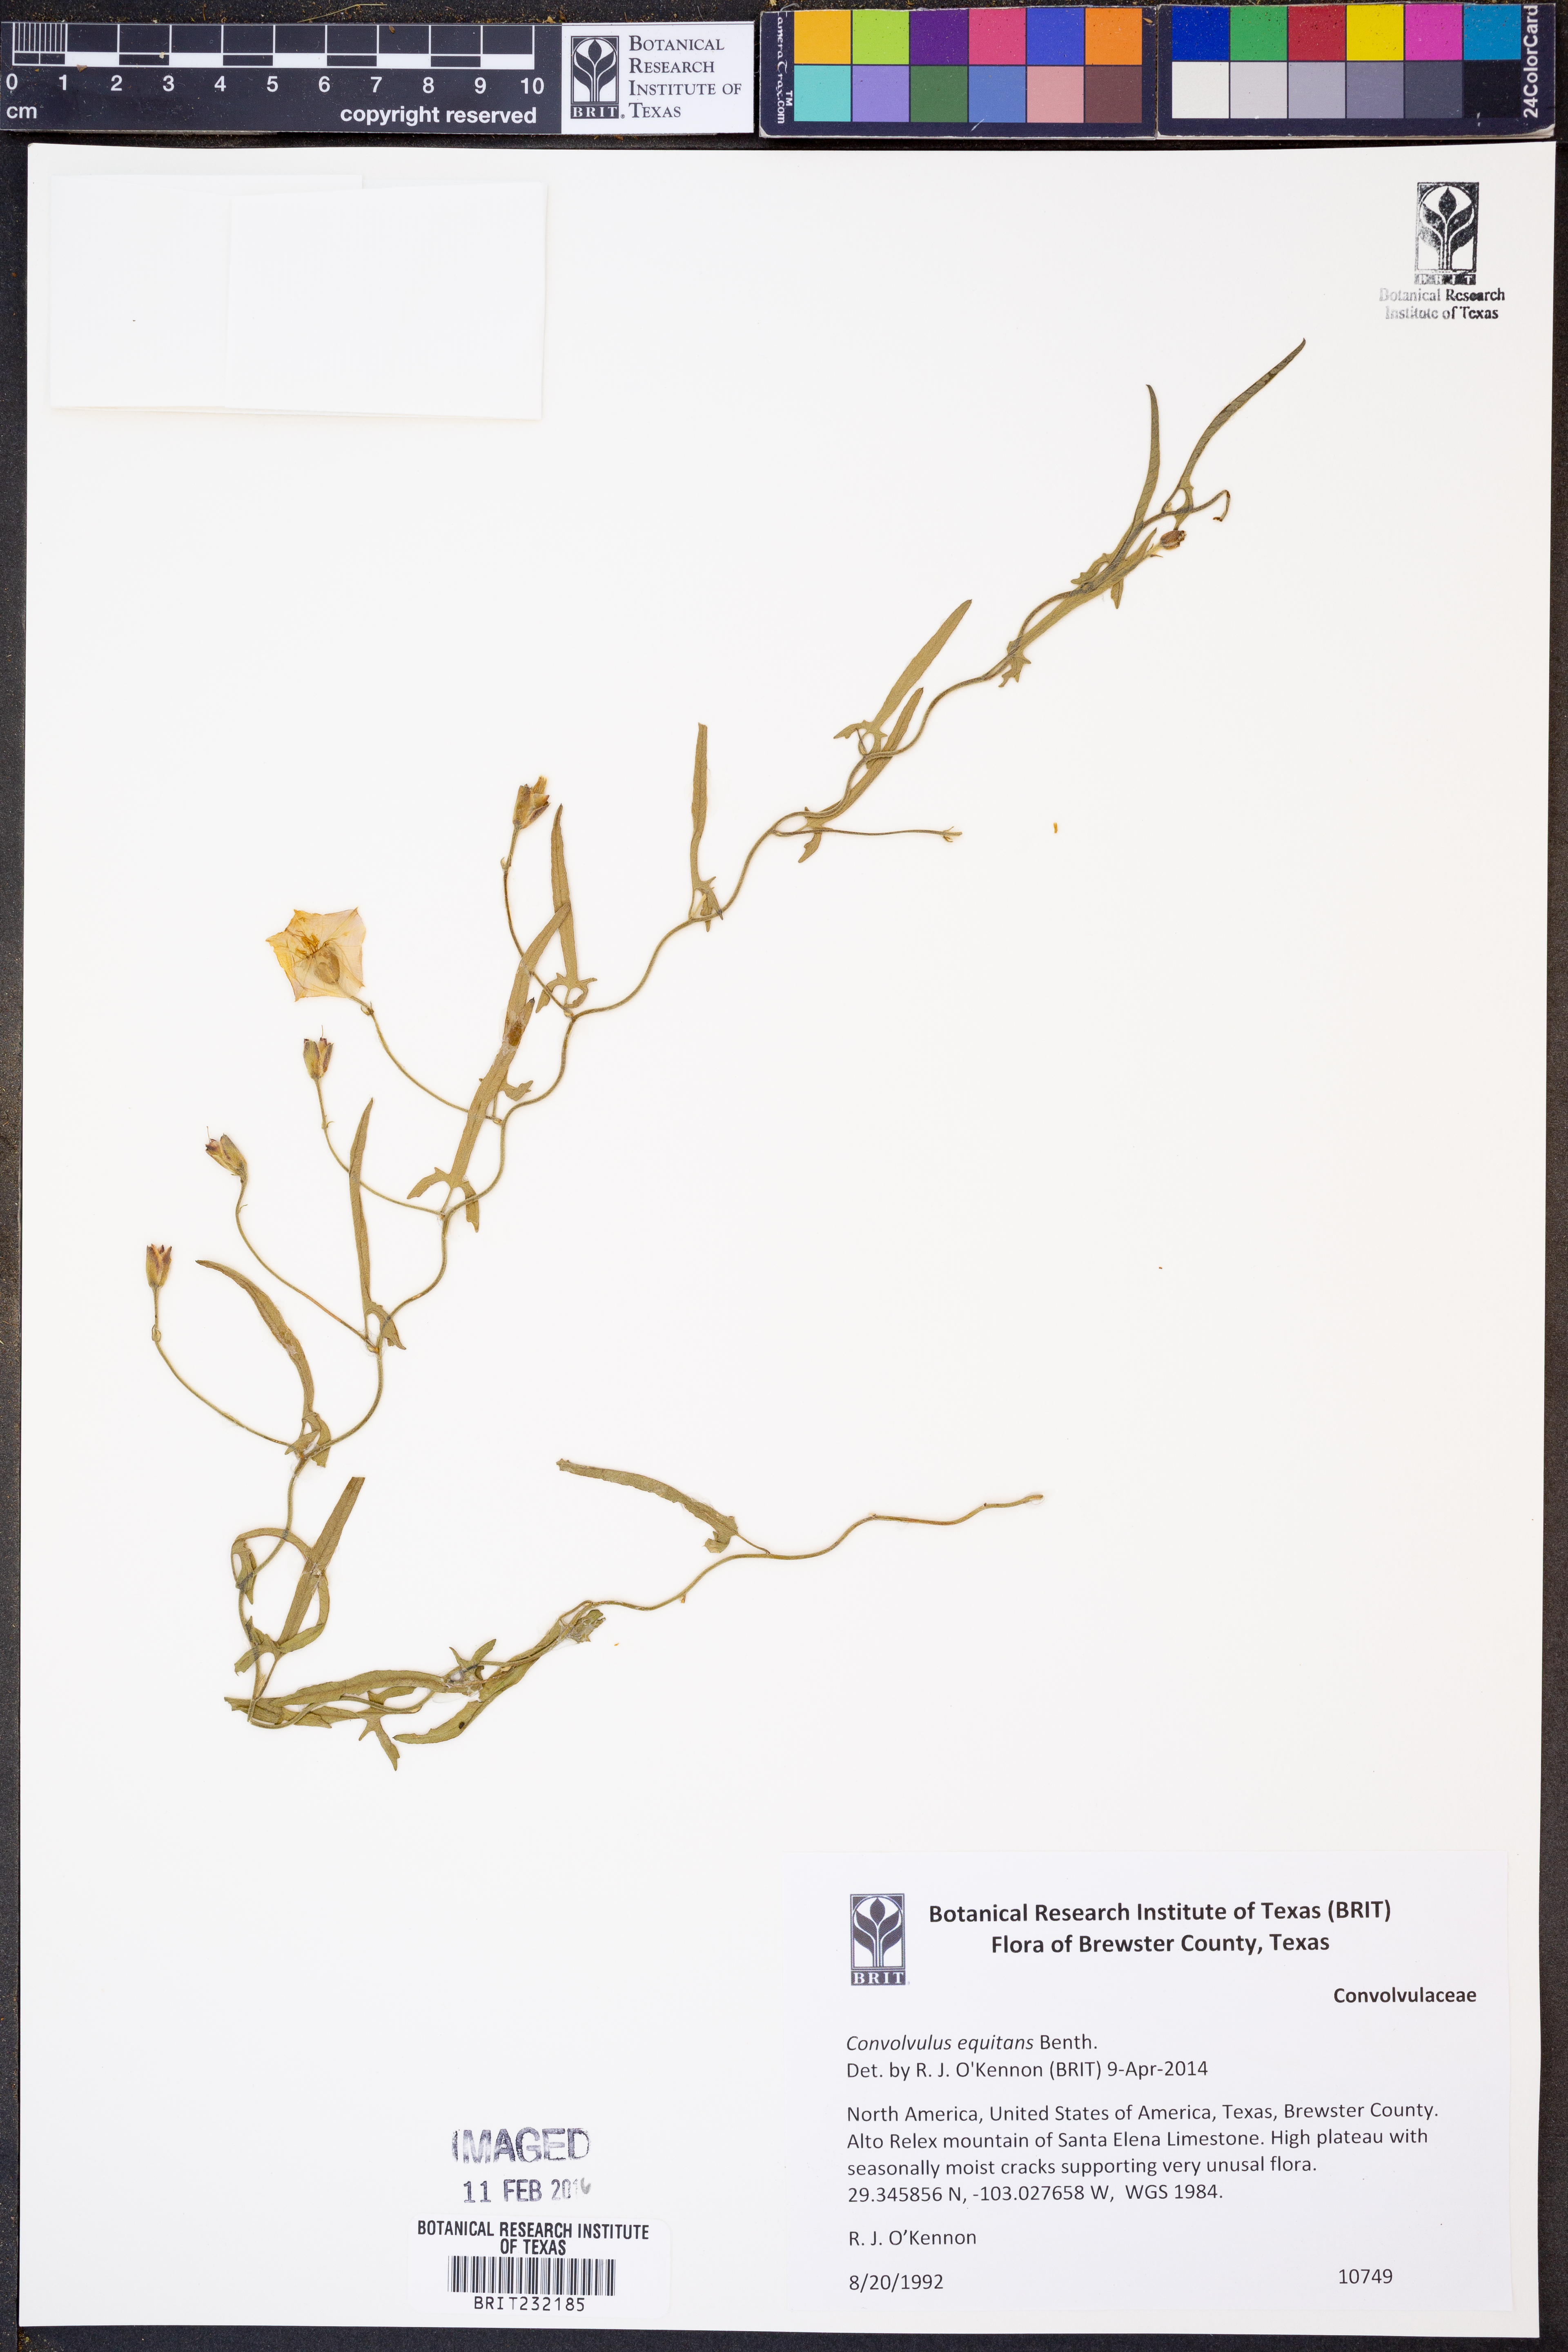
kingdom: Plantae
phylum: Tracheophyta
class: Magnoliopsida
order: Solanales
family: Convolvulaceae
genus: Convolvulus
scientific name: Convolvulus equitans
